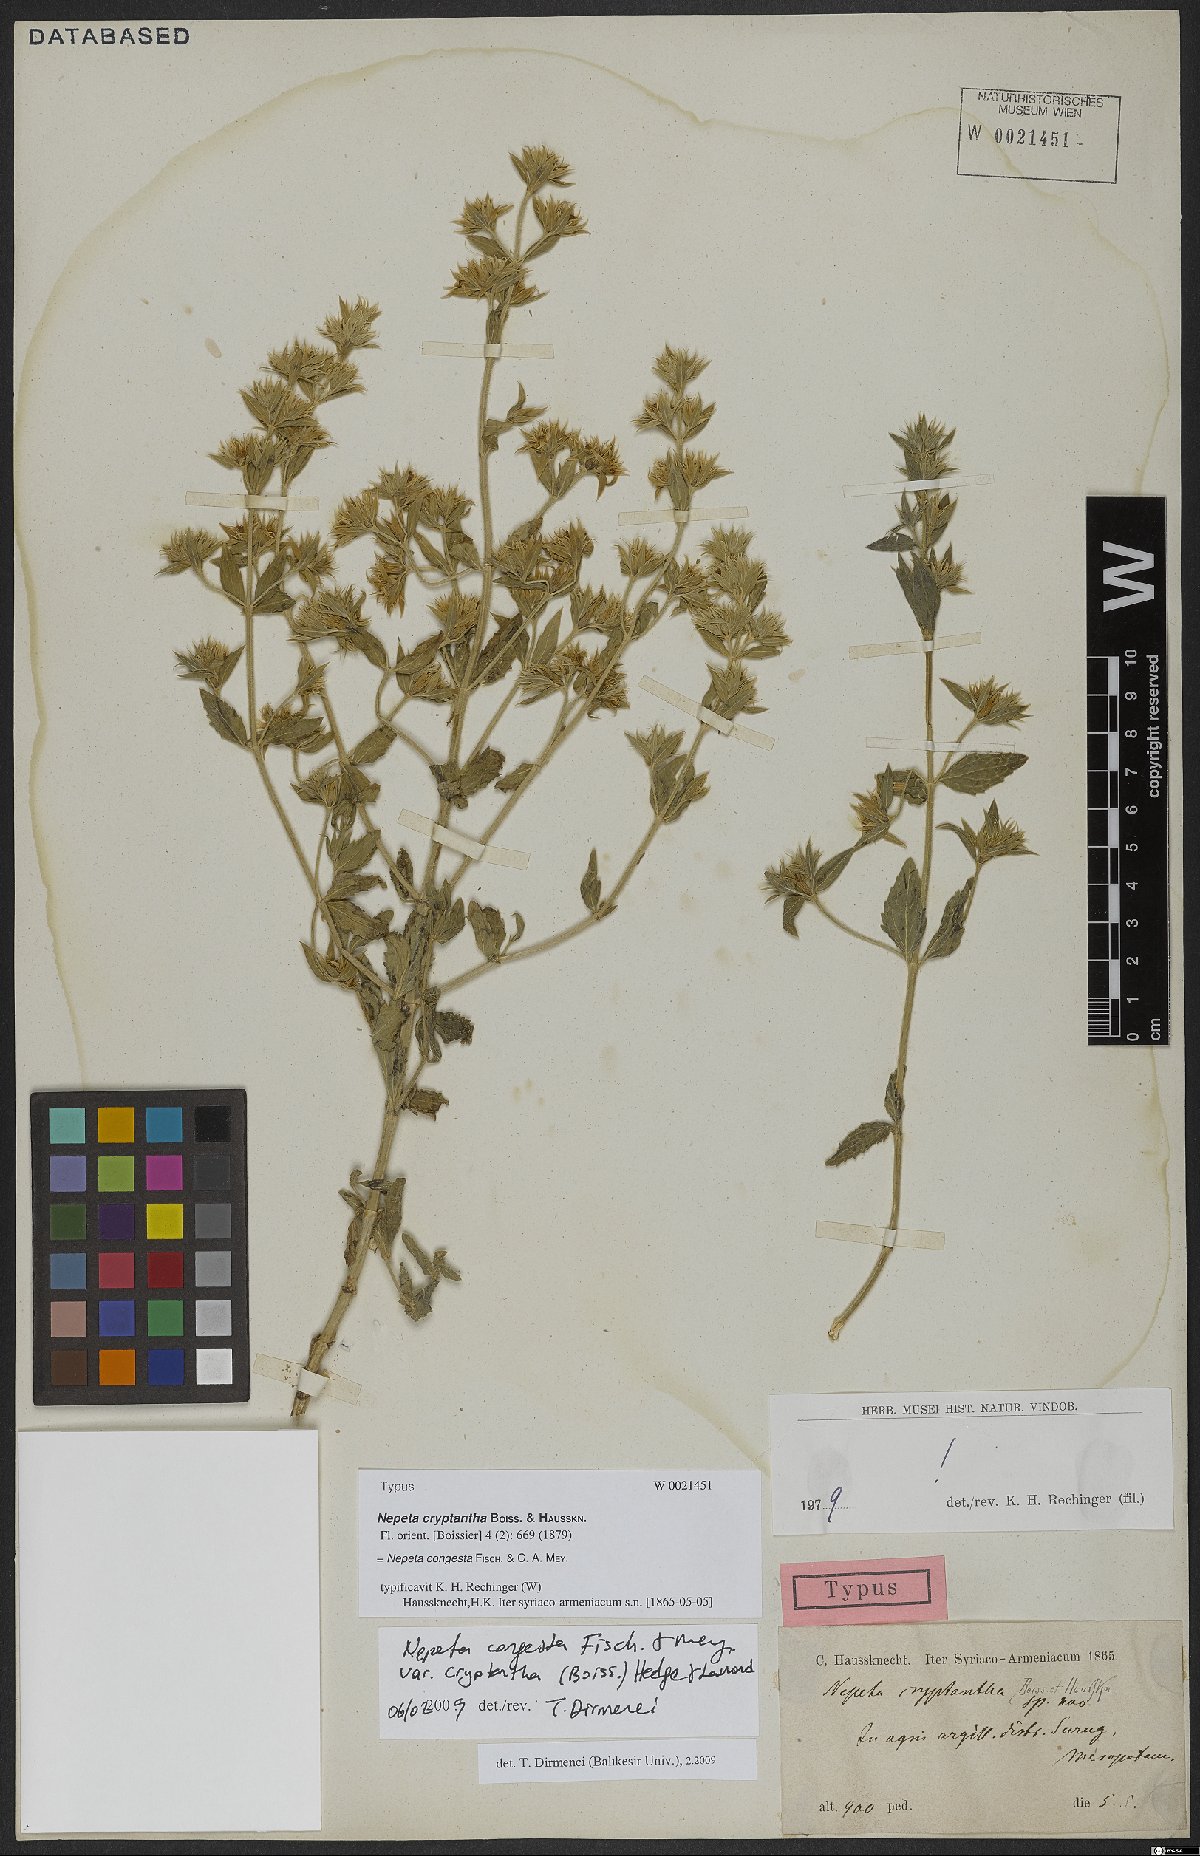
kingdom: Plantae
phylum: Tracheophyta
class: Magnoliopsida
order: Lamiales
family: Lamiaceae
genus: Nepeta
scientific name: Nepeta congesta
